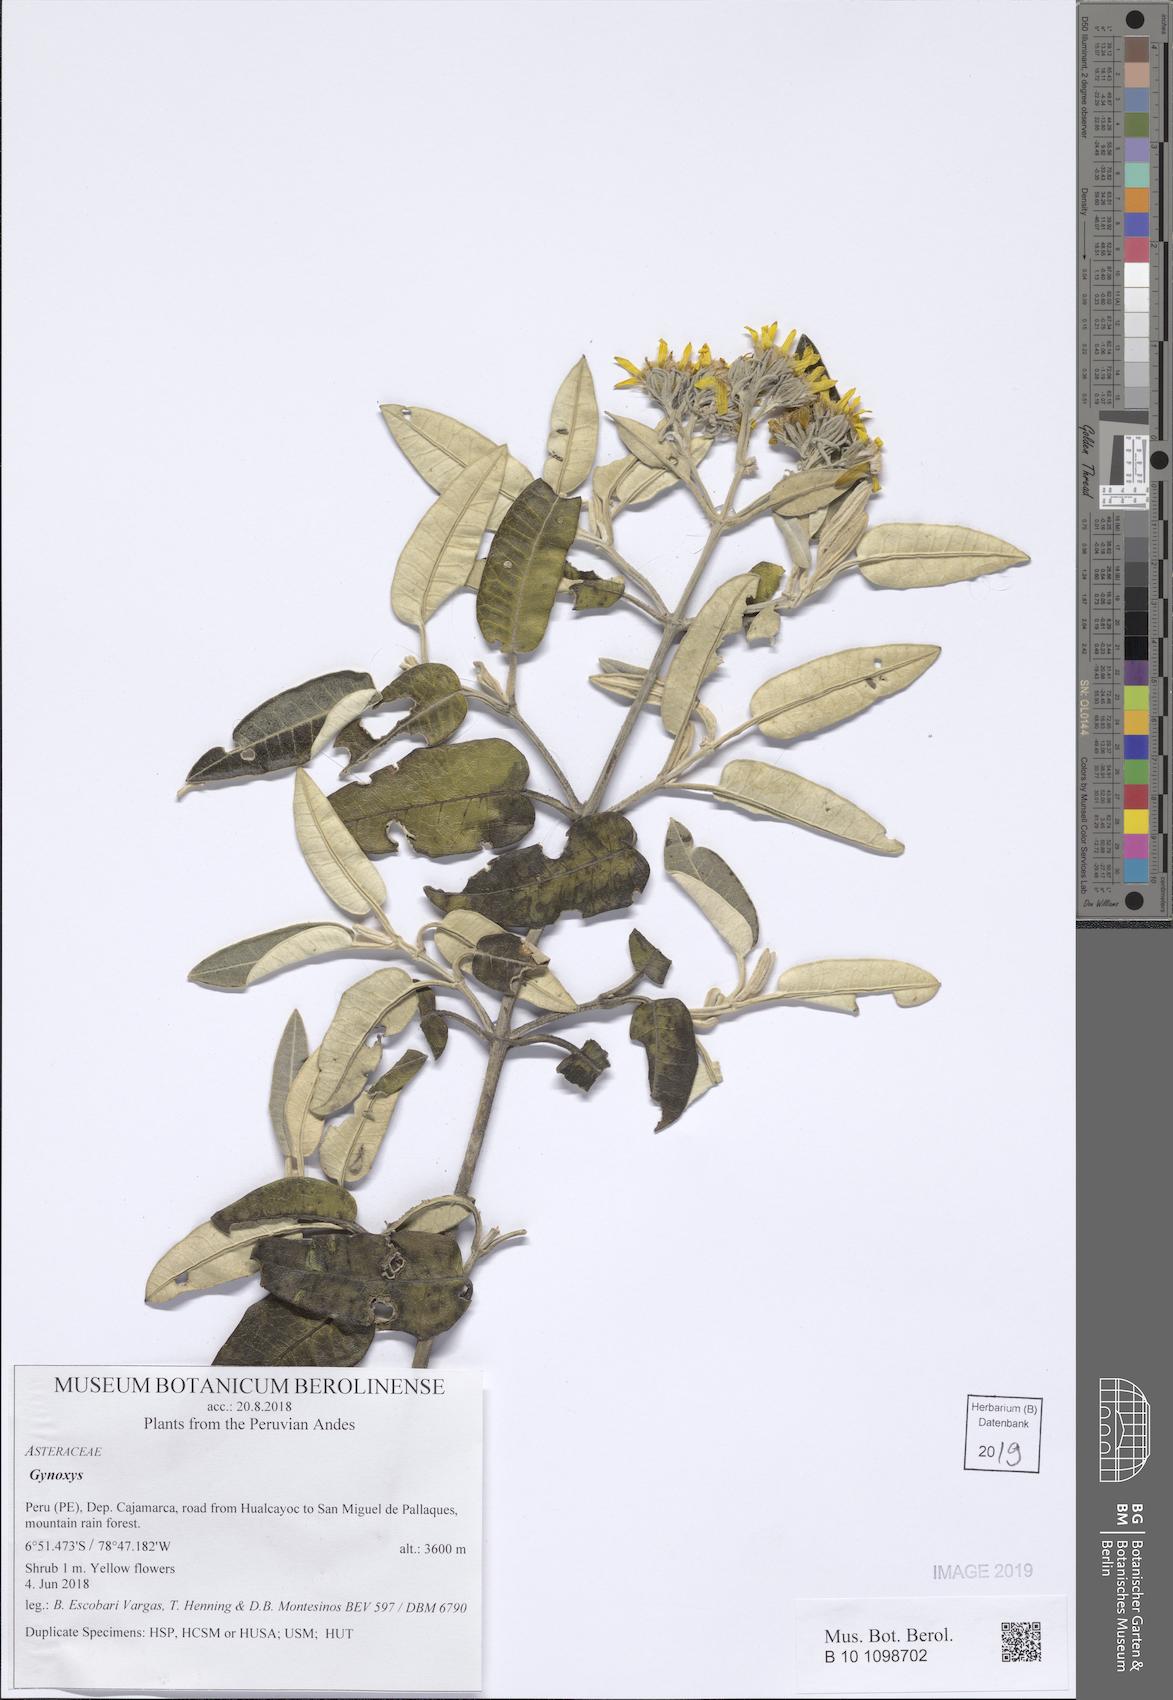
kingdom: Plantae
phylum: Tracheophyta
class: Magnoliopsida
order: Asterales
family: Asteraceae
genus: Gynoxys
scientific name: Gynoxys
